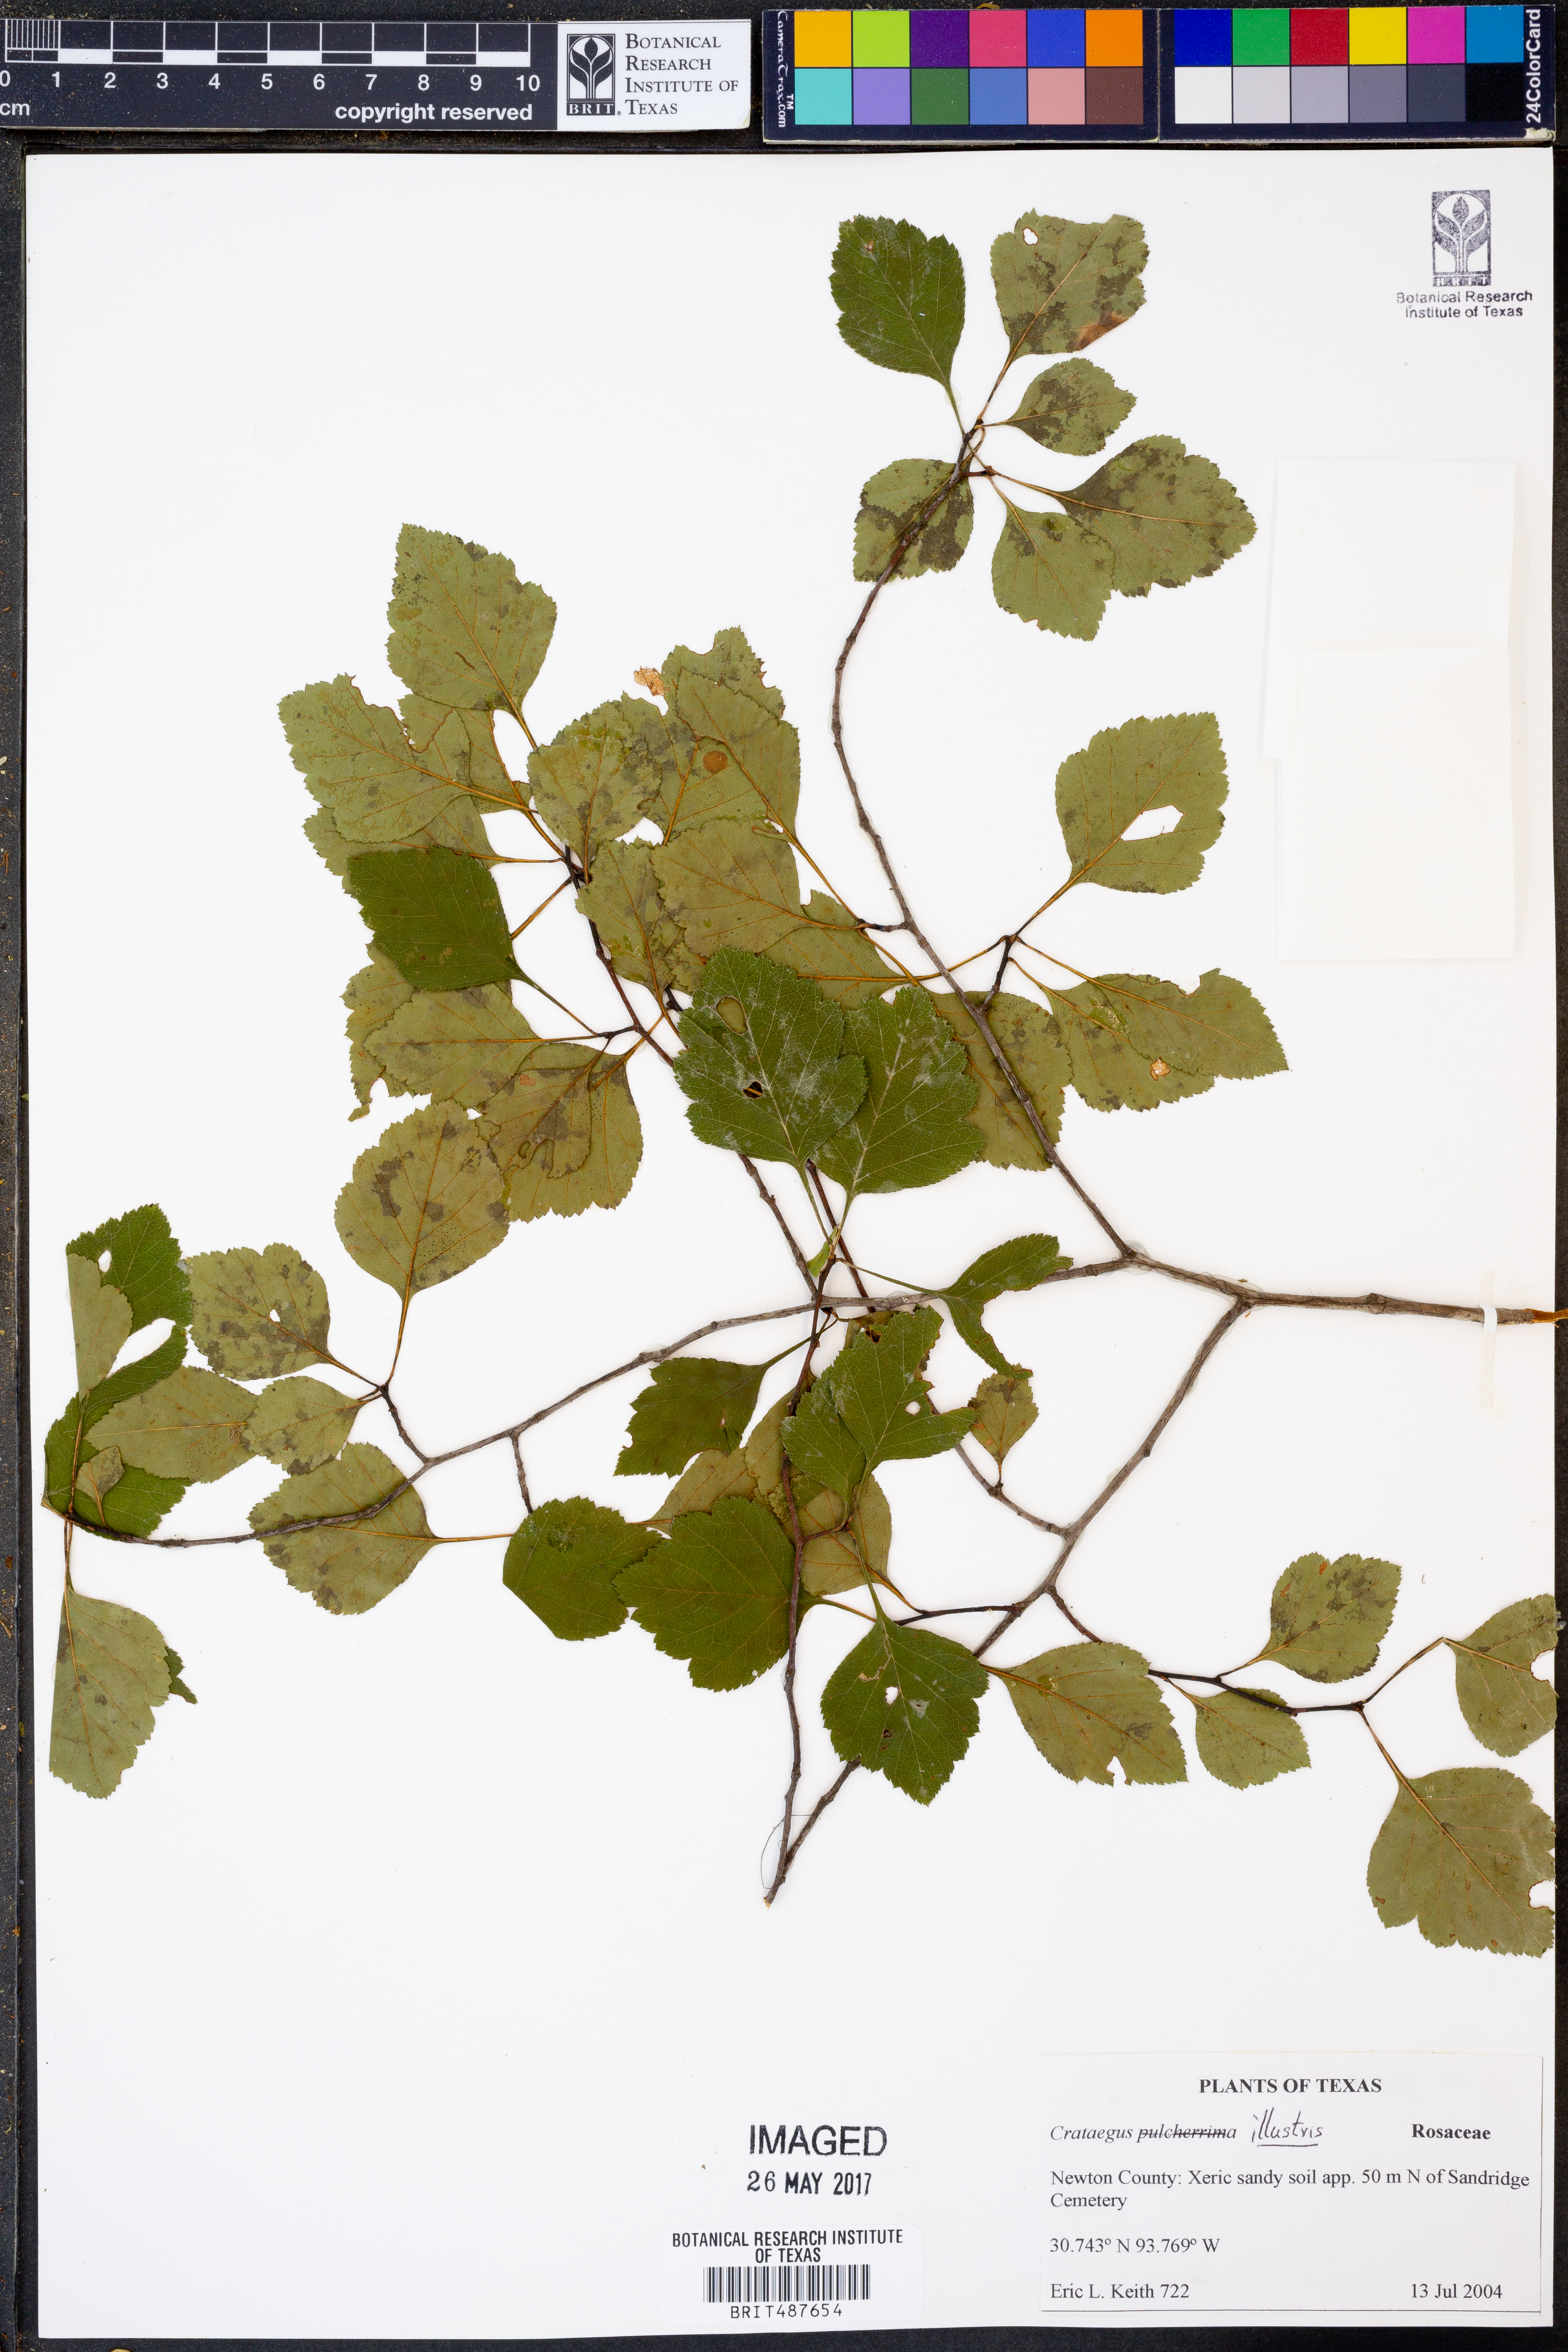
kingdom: Plantae
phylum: Tracheophyta
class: Magnoliopsida
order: Rosales
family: Rosaceae
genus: Crataegus
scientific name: Crataegus pulcherrima
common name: Beautiful hawthorn
